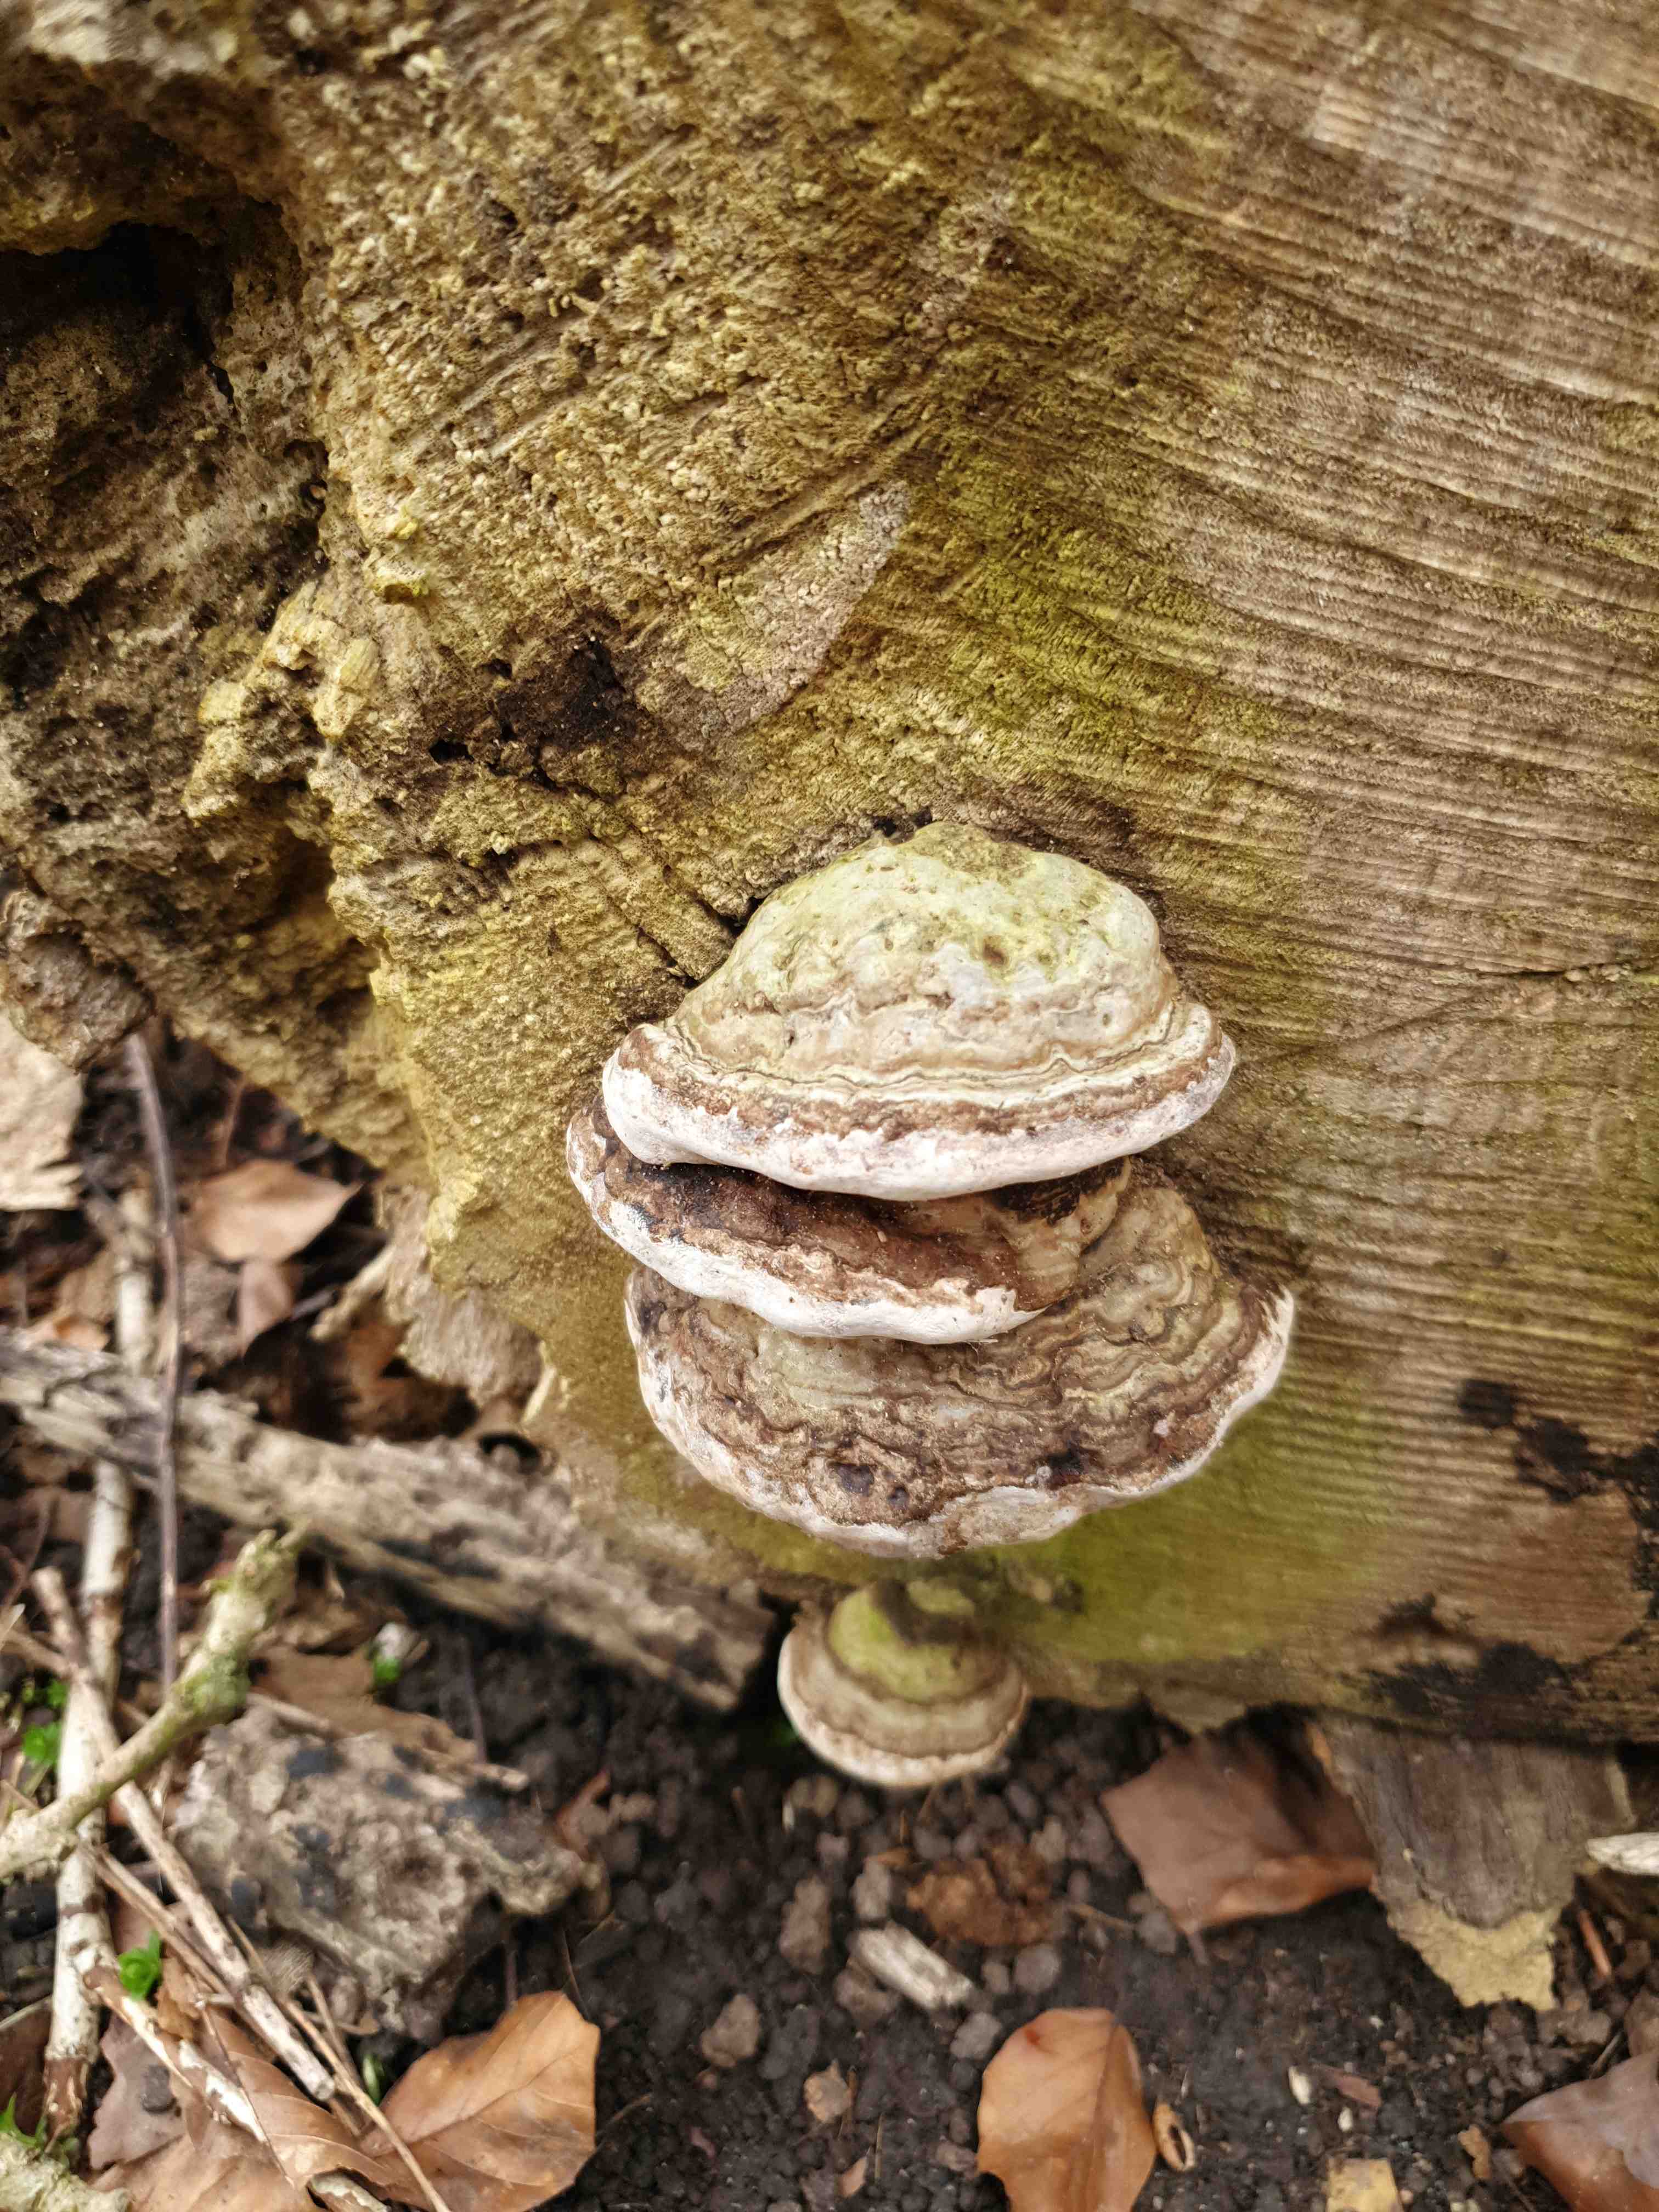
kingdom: Fungi
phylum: Basidiomycota
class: Agaricomycetes
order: Polyporales
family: Polyporaceae
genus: Fomes
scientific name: Fomes fomentarius
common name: tøndersvamp
